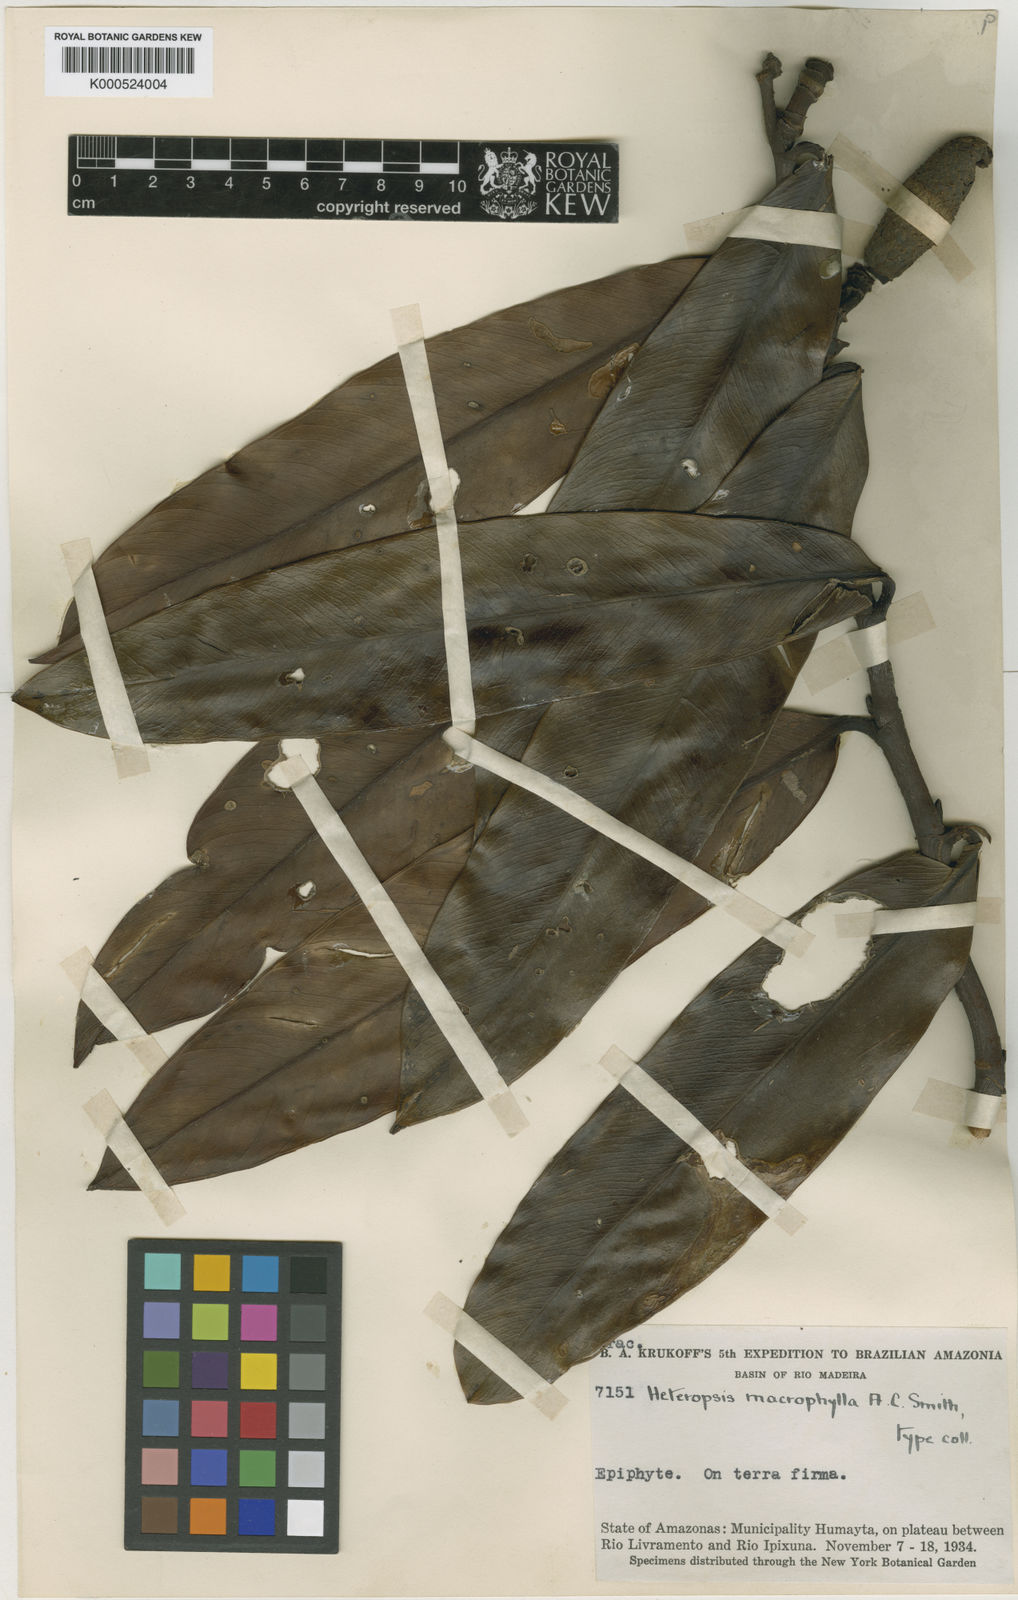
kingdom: Plantae
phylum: Tracheophyta
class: Liliopsida
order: Alismatales
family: Araceae
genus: Heteropsis
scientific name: Heteropsis macrophylla
